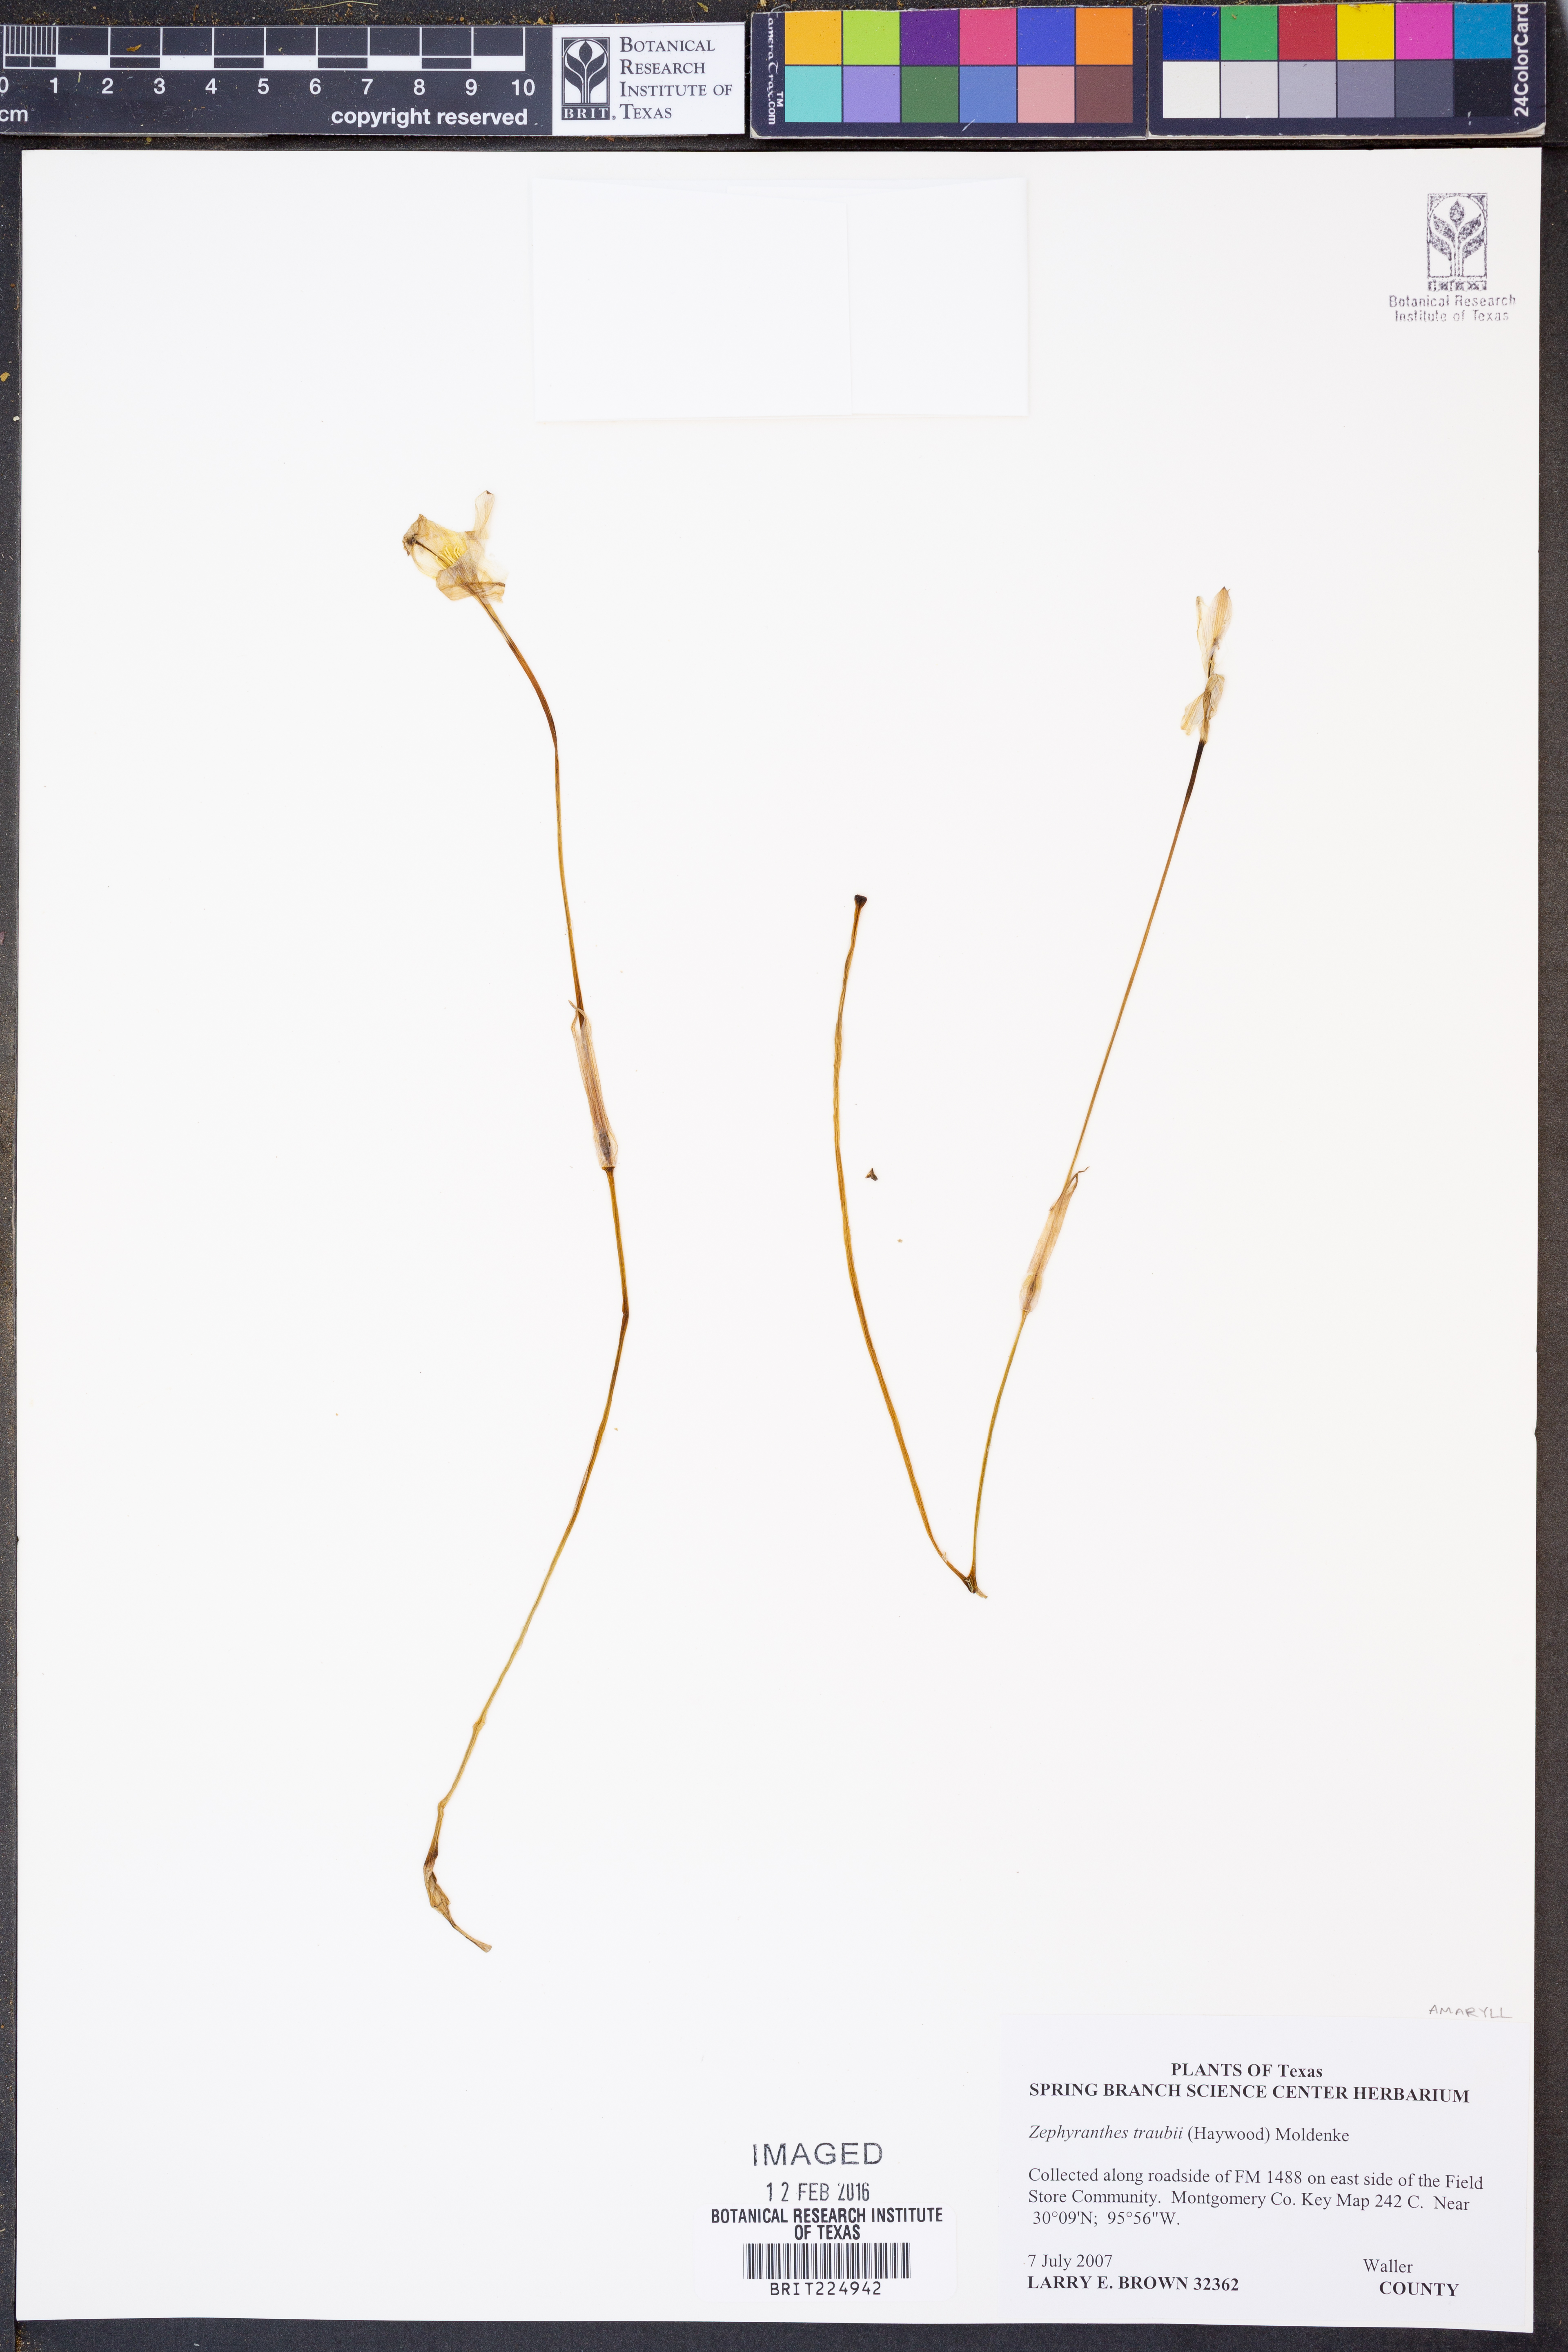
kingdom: Plantae
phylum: Tracheophyta
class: Liliopsida
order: Asparagales
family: Amaryllidaceae
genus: Zephyranthes
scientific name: Zephyranthes traubii
